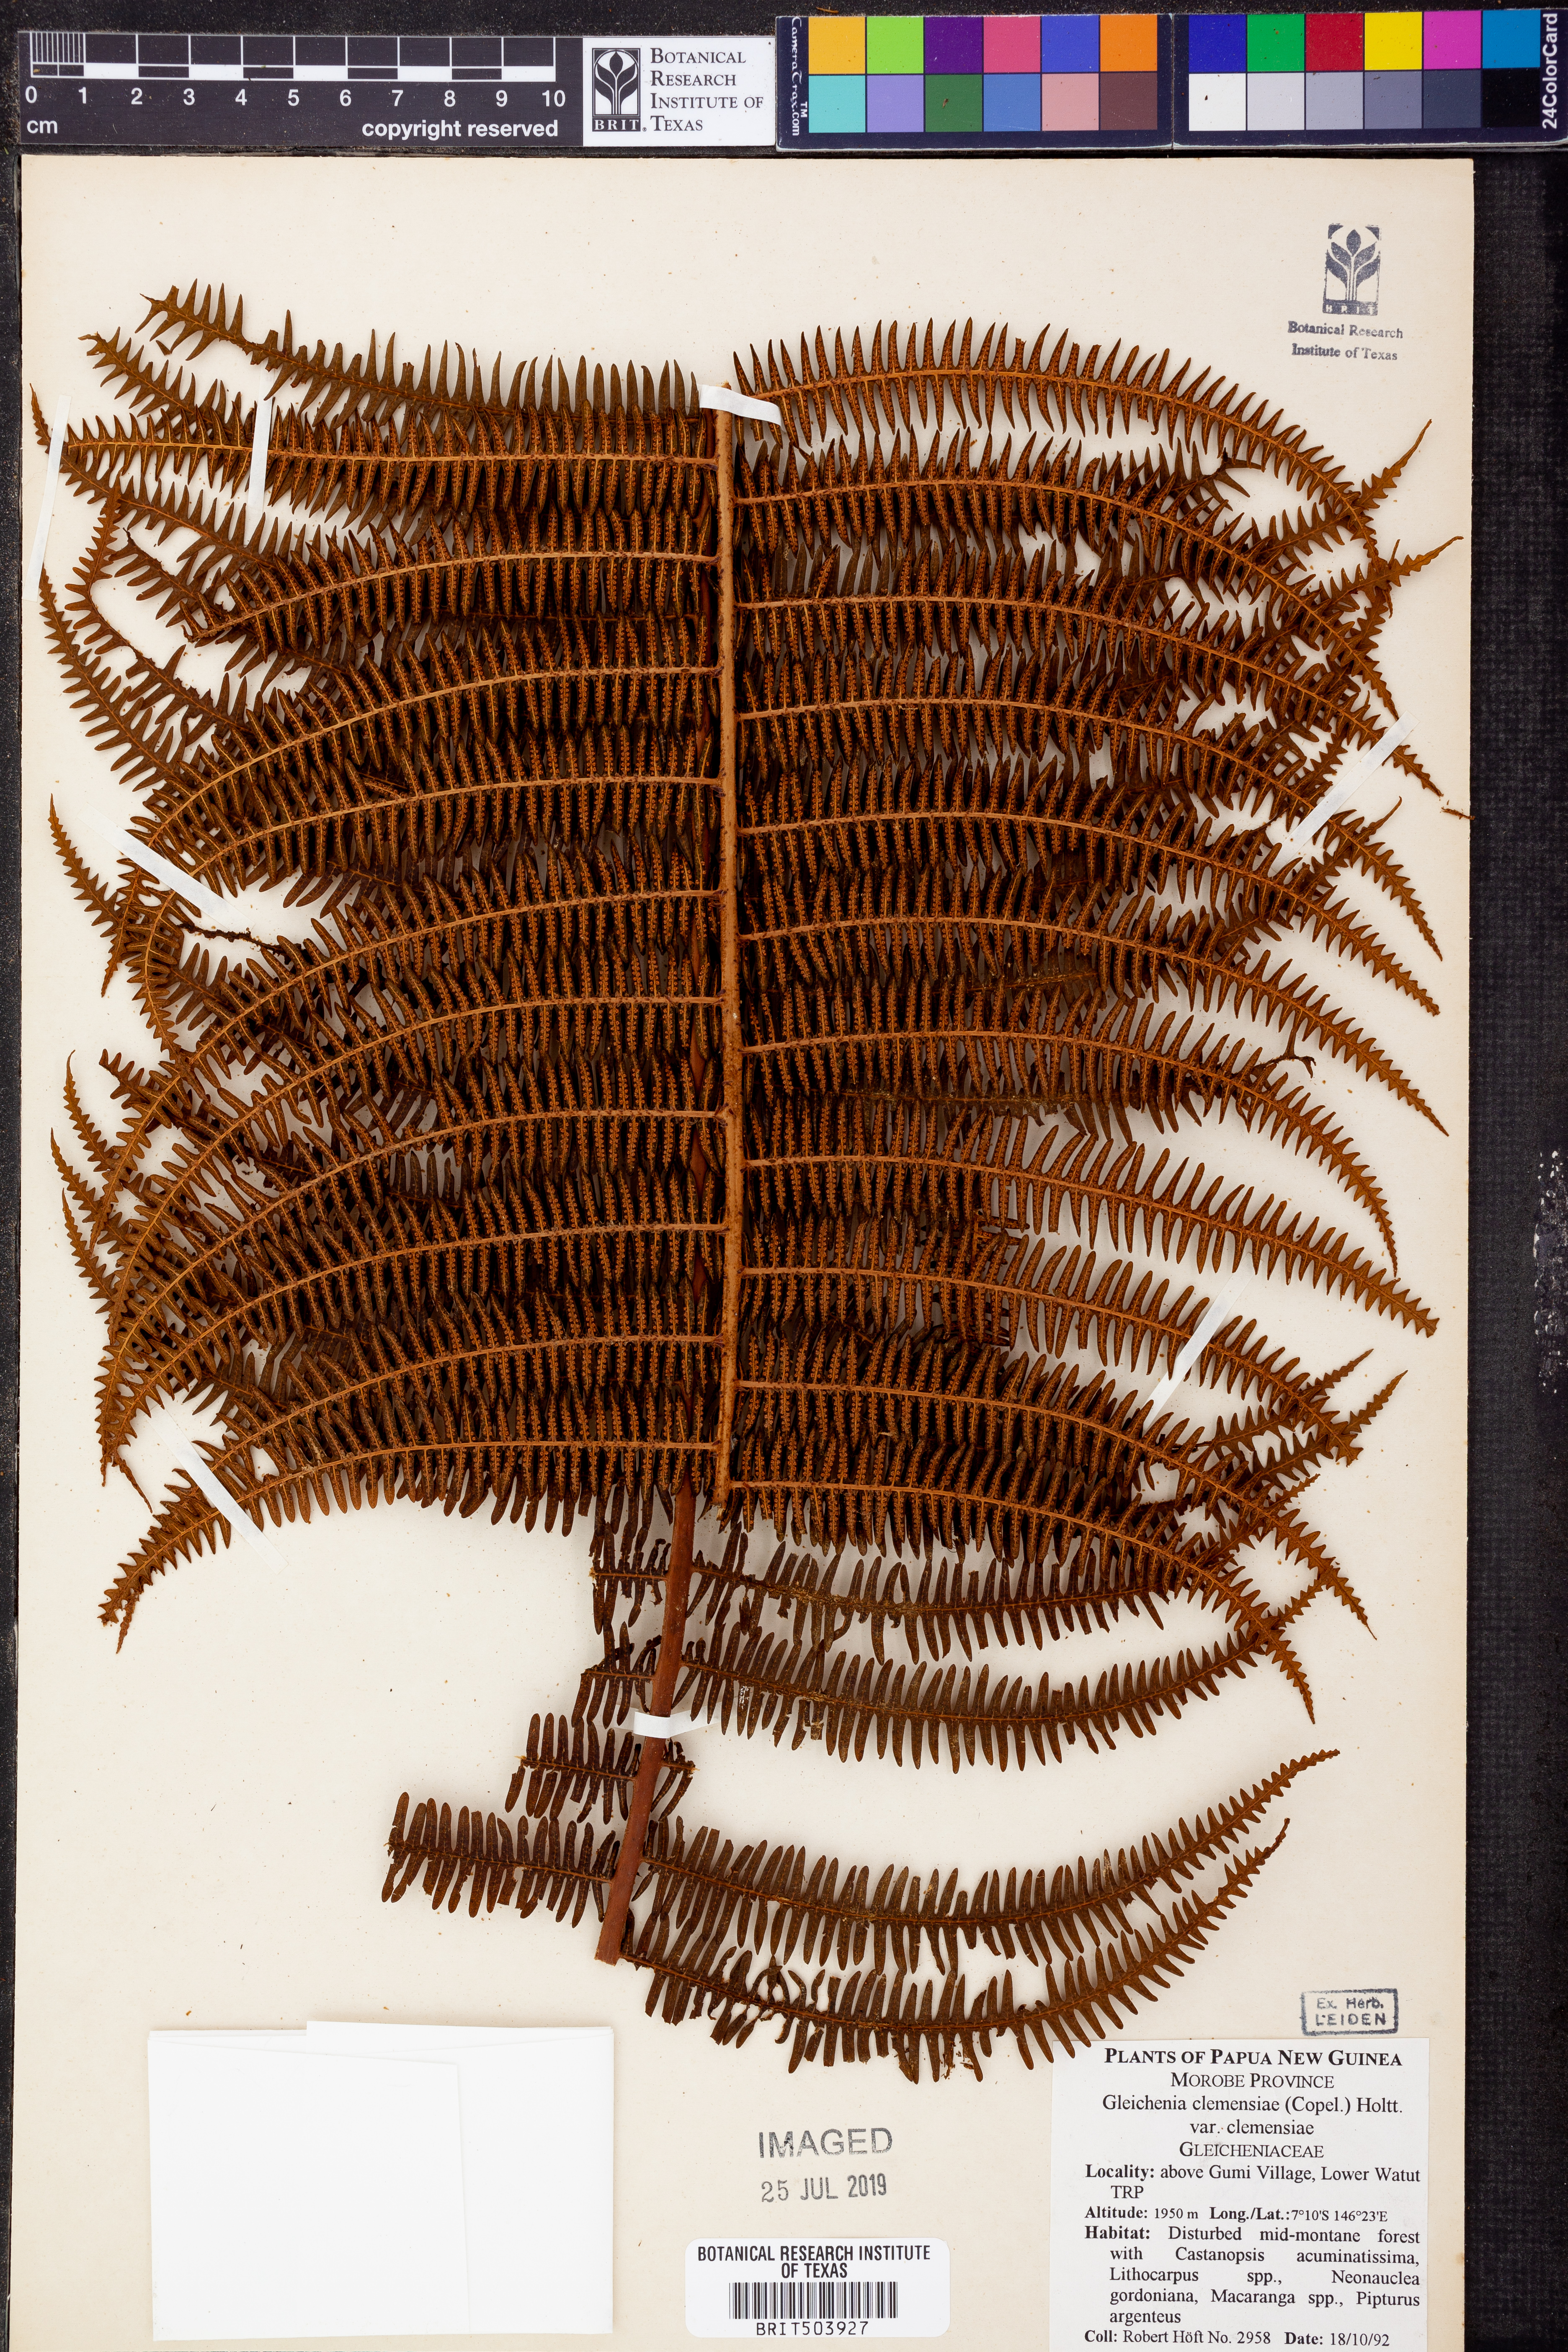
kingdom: Plantae
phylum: Tracheophyta
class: Polypodiopsida
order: Gleicheniales
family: Gleicheniaceae
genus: Diplopterygium
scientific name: Diplopterygium clemensiae
